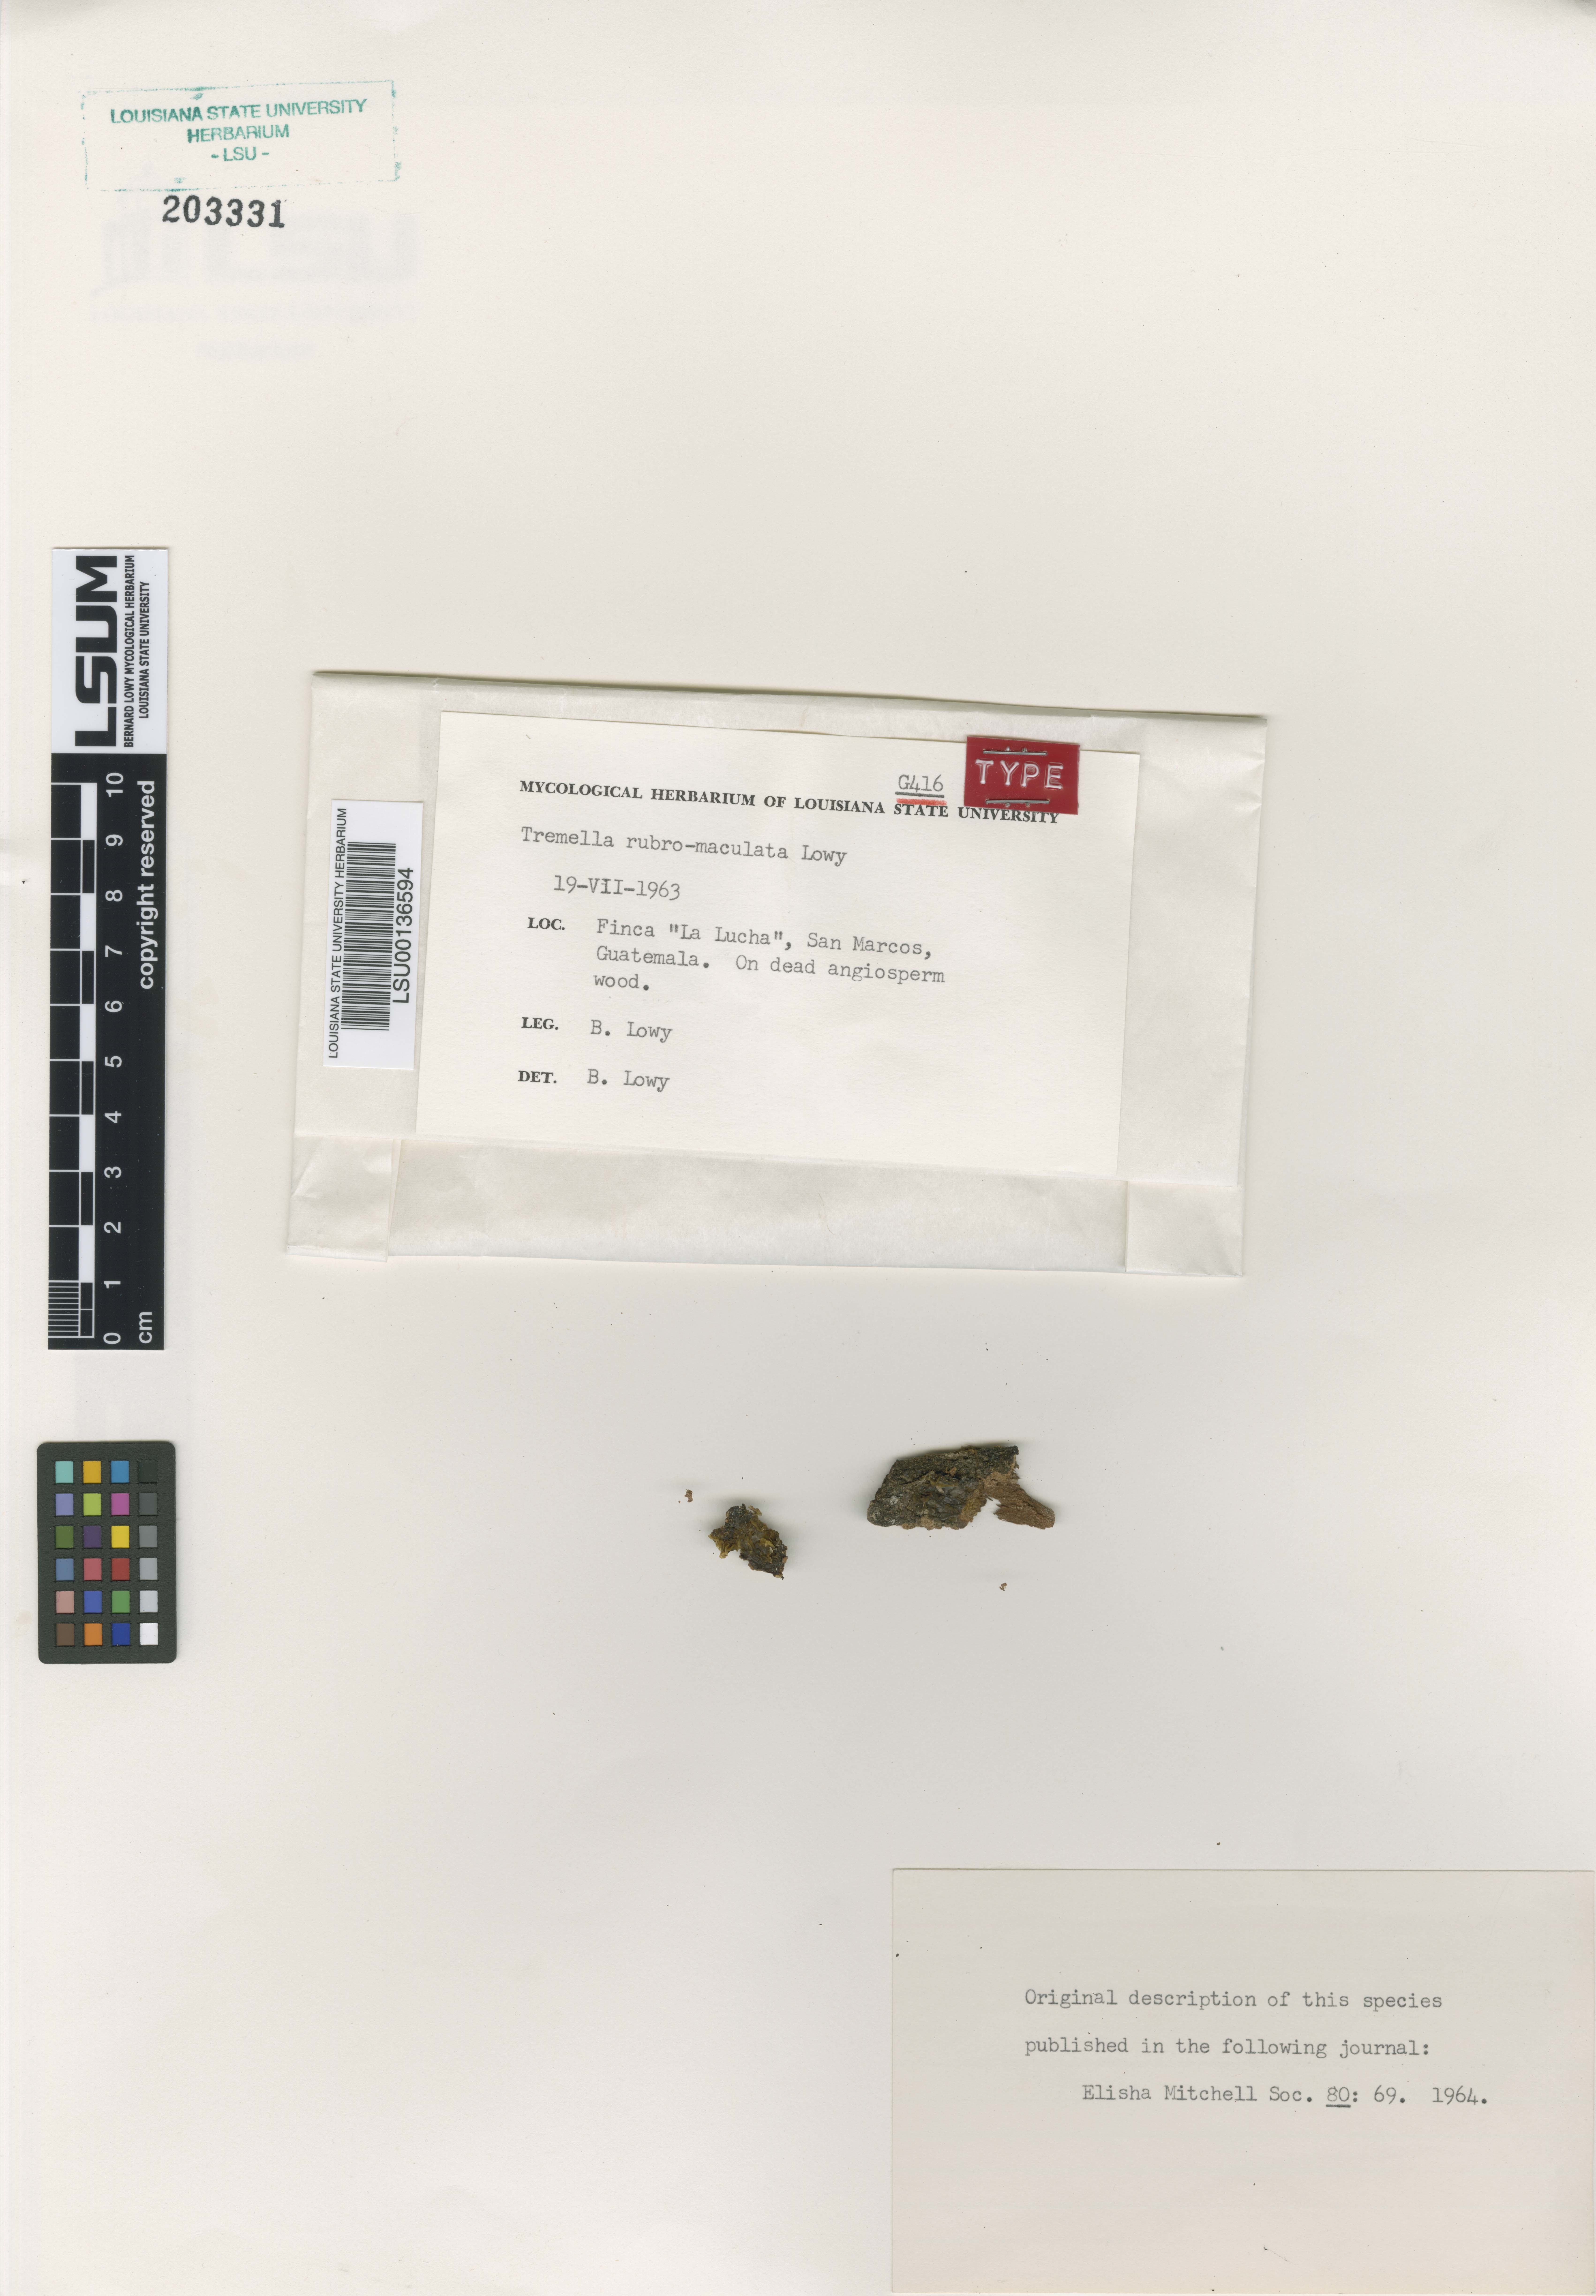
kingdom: Fungi
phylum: Basidiomycota
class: Tremellomycetes
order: Tremellales
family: Tremellaceae
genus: Tremella
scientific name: Tremella rubromaculata
